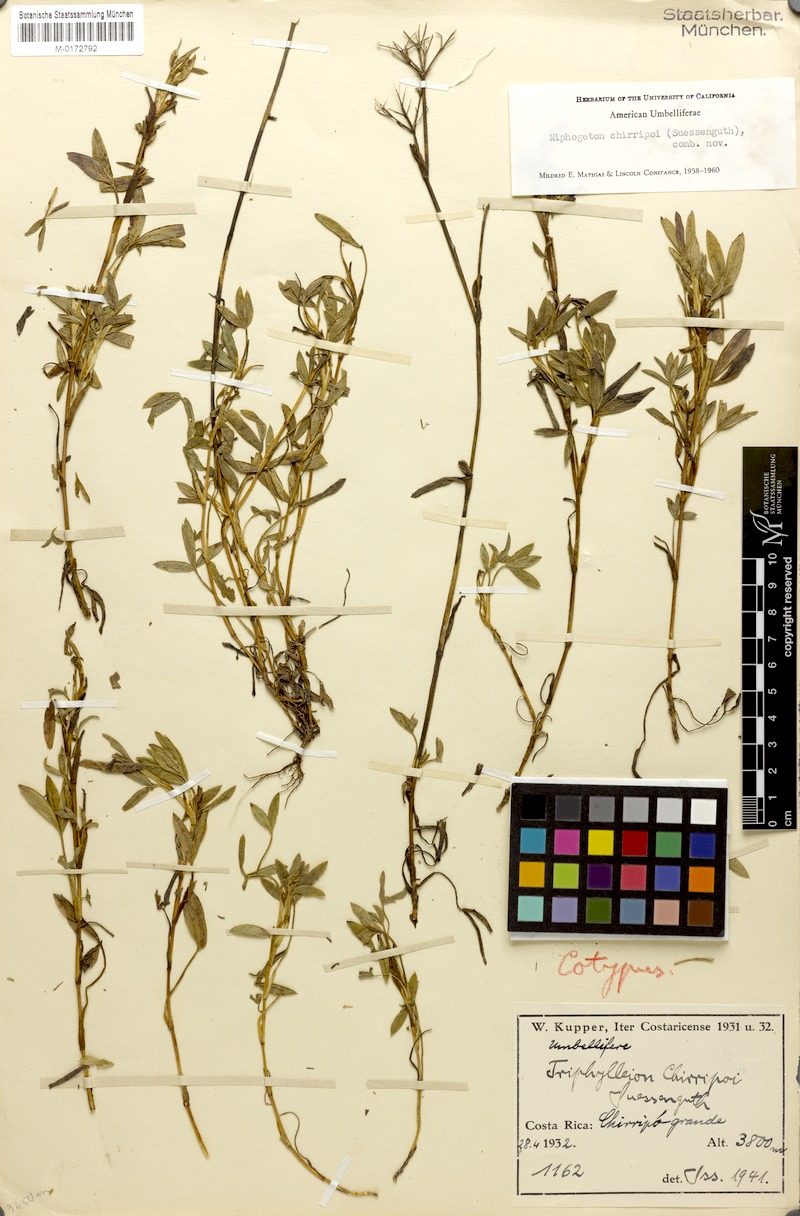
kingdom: Plantae
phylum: Tracheophyta
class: Magnoliopsida
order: Apiales
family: Apiaceae
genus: Niphogeton
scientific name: Niphogeton chirripoi
